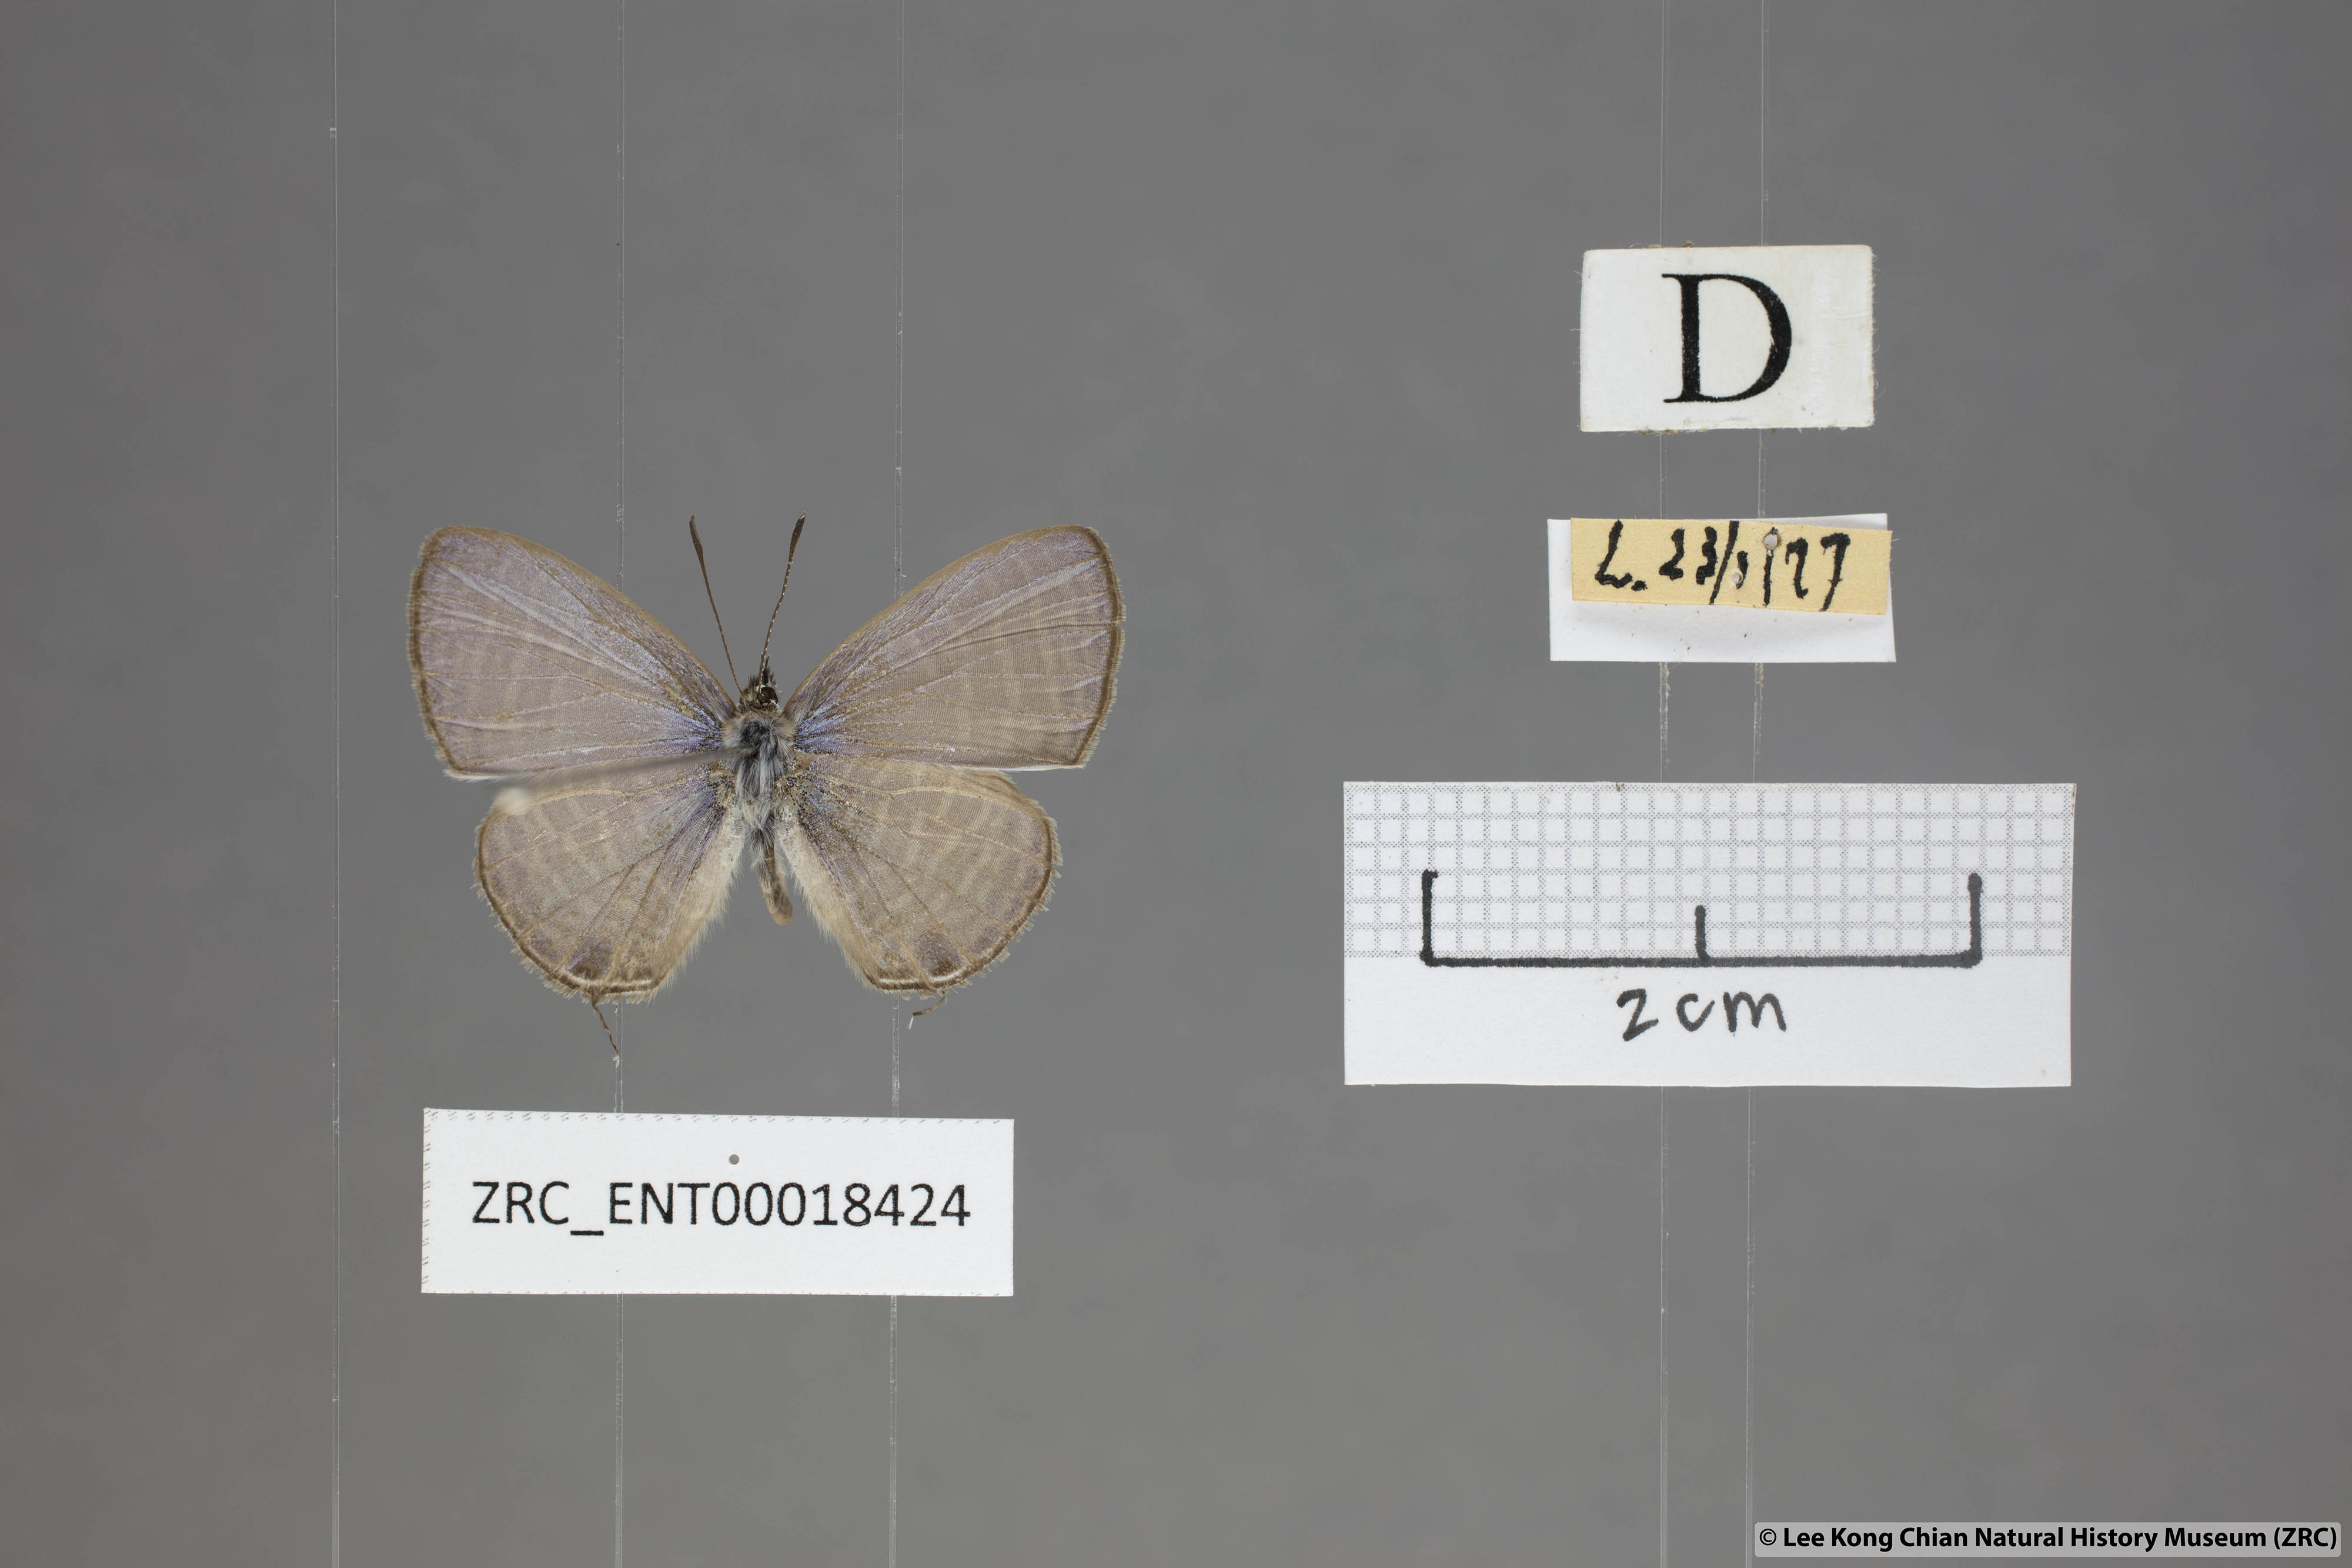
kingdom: Animalia
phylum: Arthropoda
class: Insecta
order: Lepidoptera
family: Lycaenidae
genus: Nacaduba
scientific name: Nacaduba pavana
